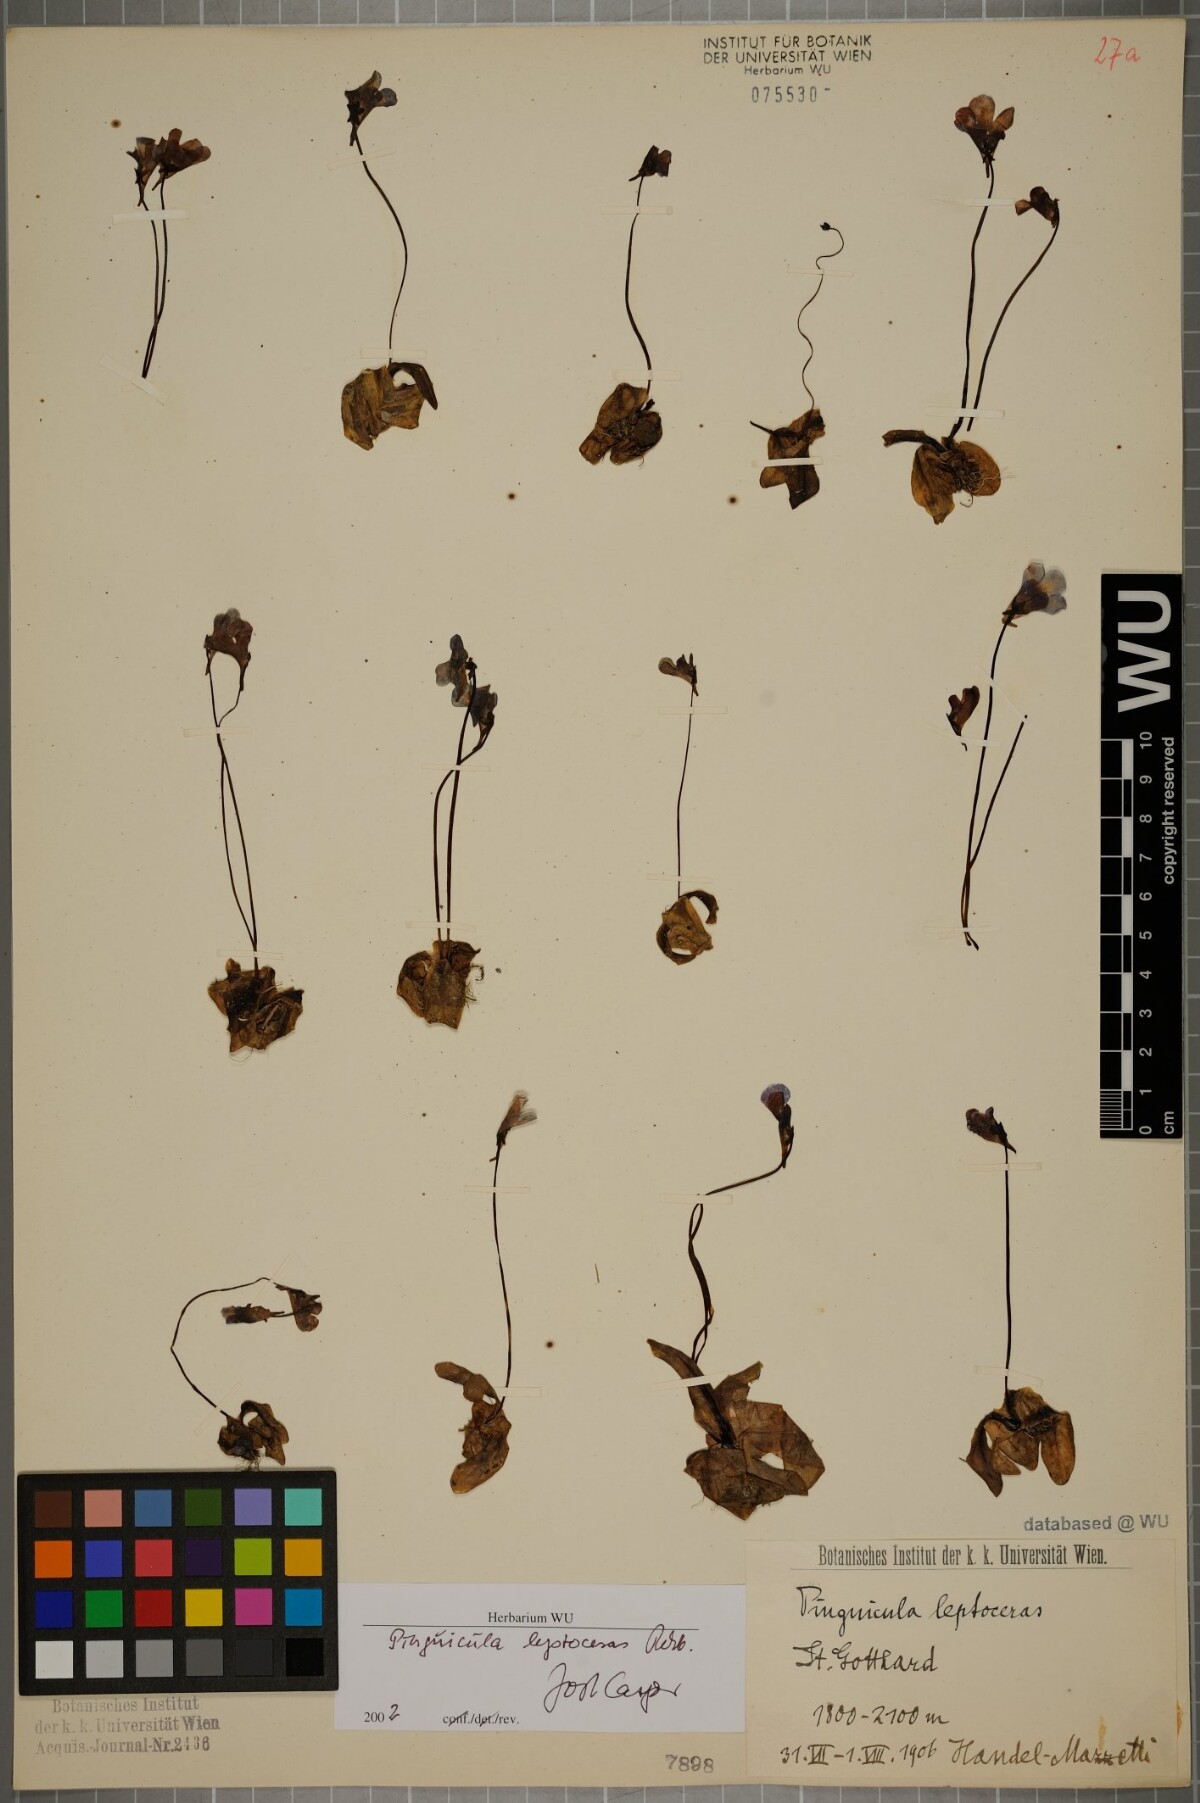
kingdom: Plantae
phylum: Tracheophyta
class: Magnoliopsida
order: Lamiales
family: Lentibulariaceae
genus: Pinguicula
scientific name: Pinguicula leptoceras
